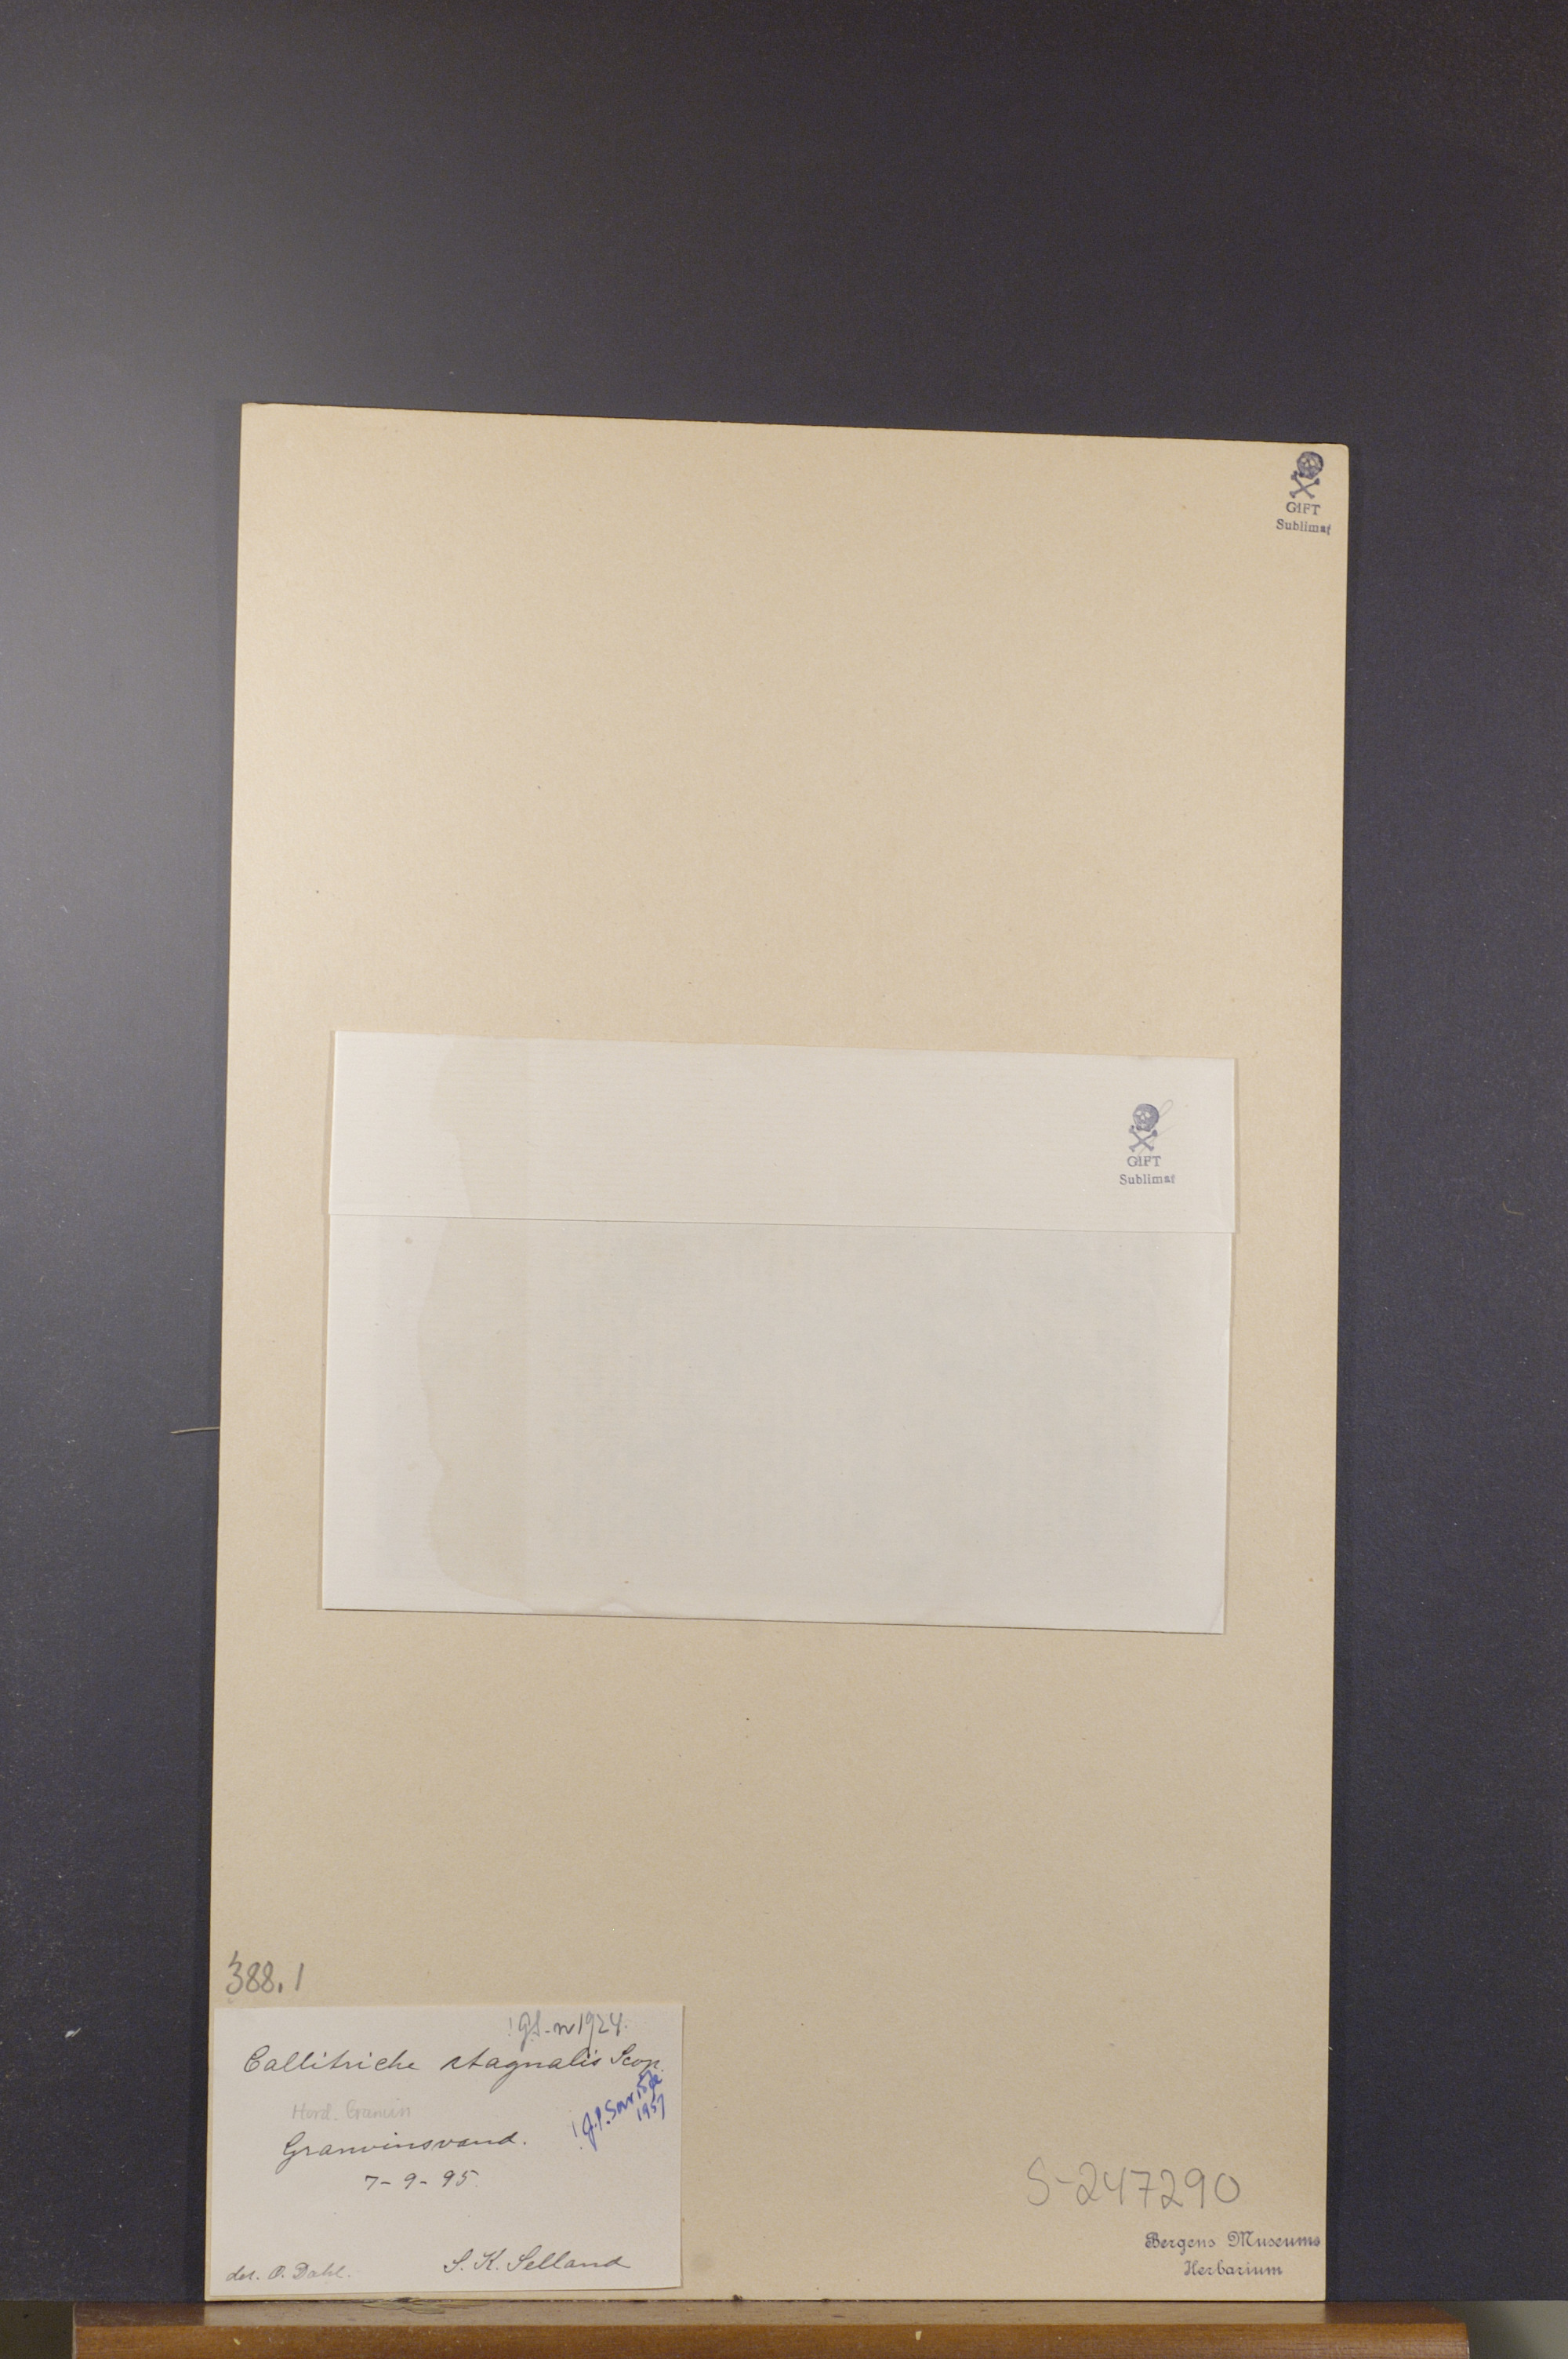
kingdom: Plantae
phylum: Tracheophyta
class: Magnoliopsida
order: Lamiales
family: Plantaginaceae
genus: Callitriche
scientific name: Callitriche stagnalis
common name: Common water-starwort
